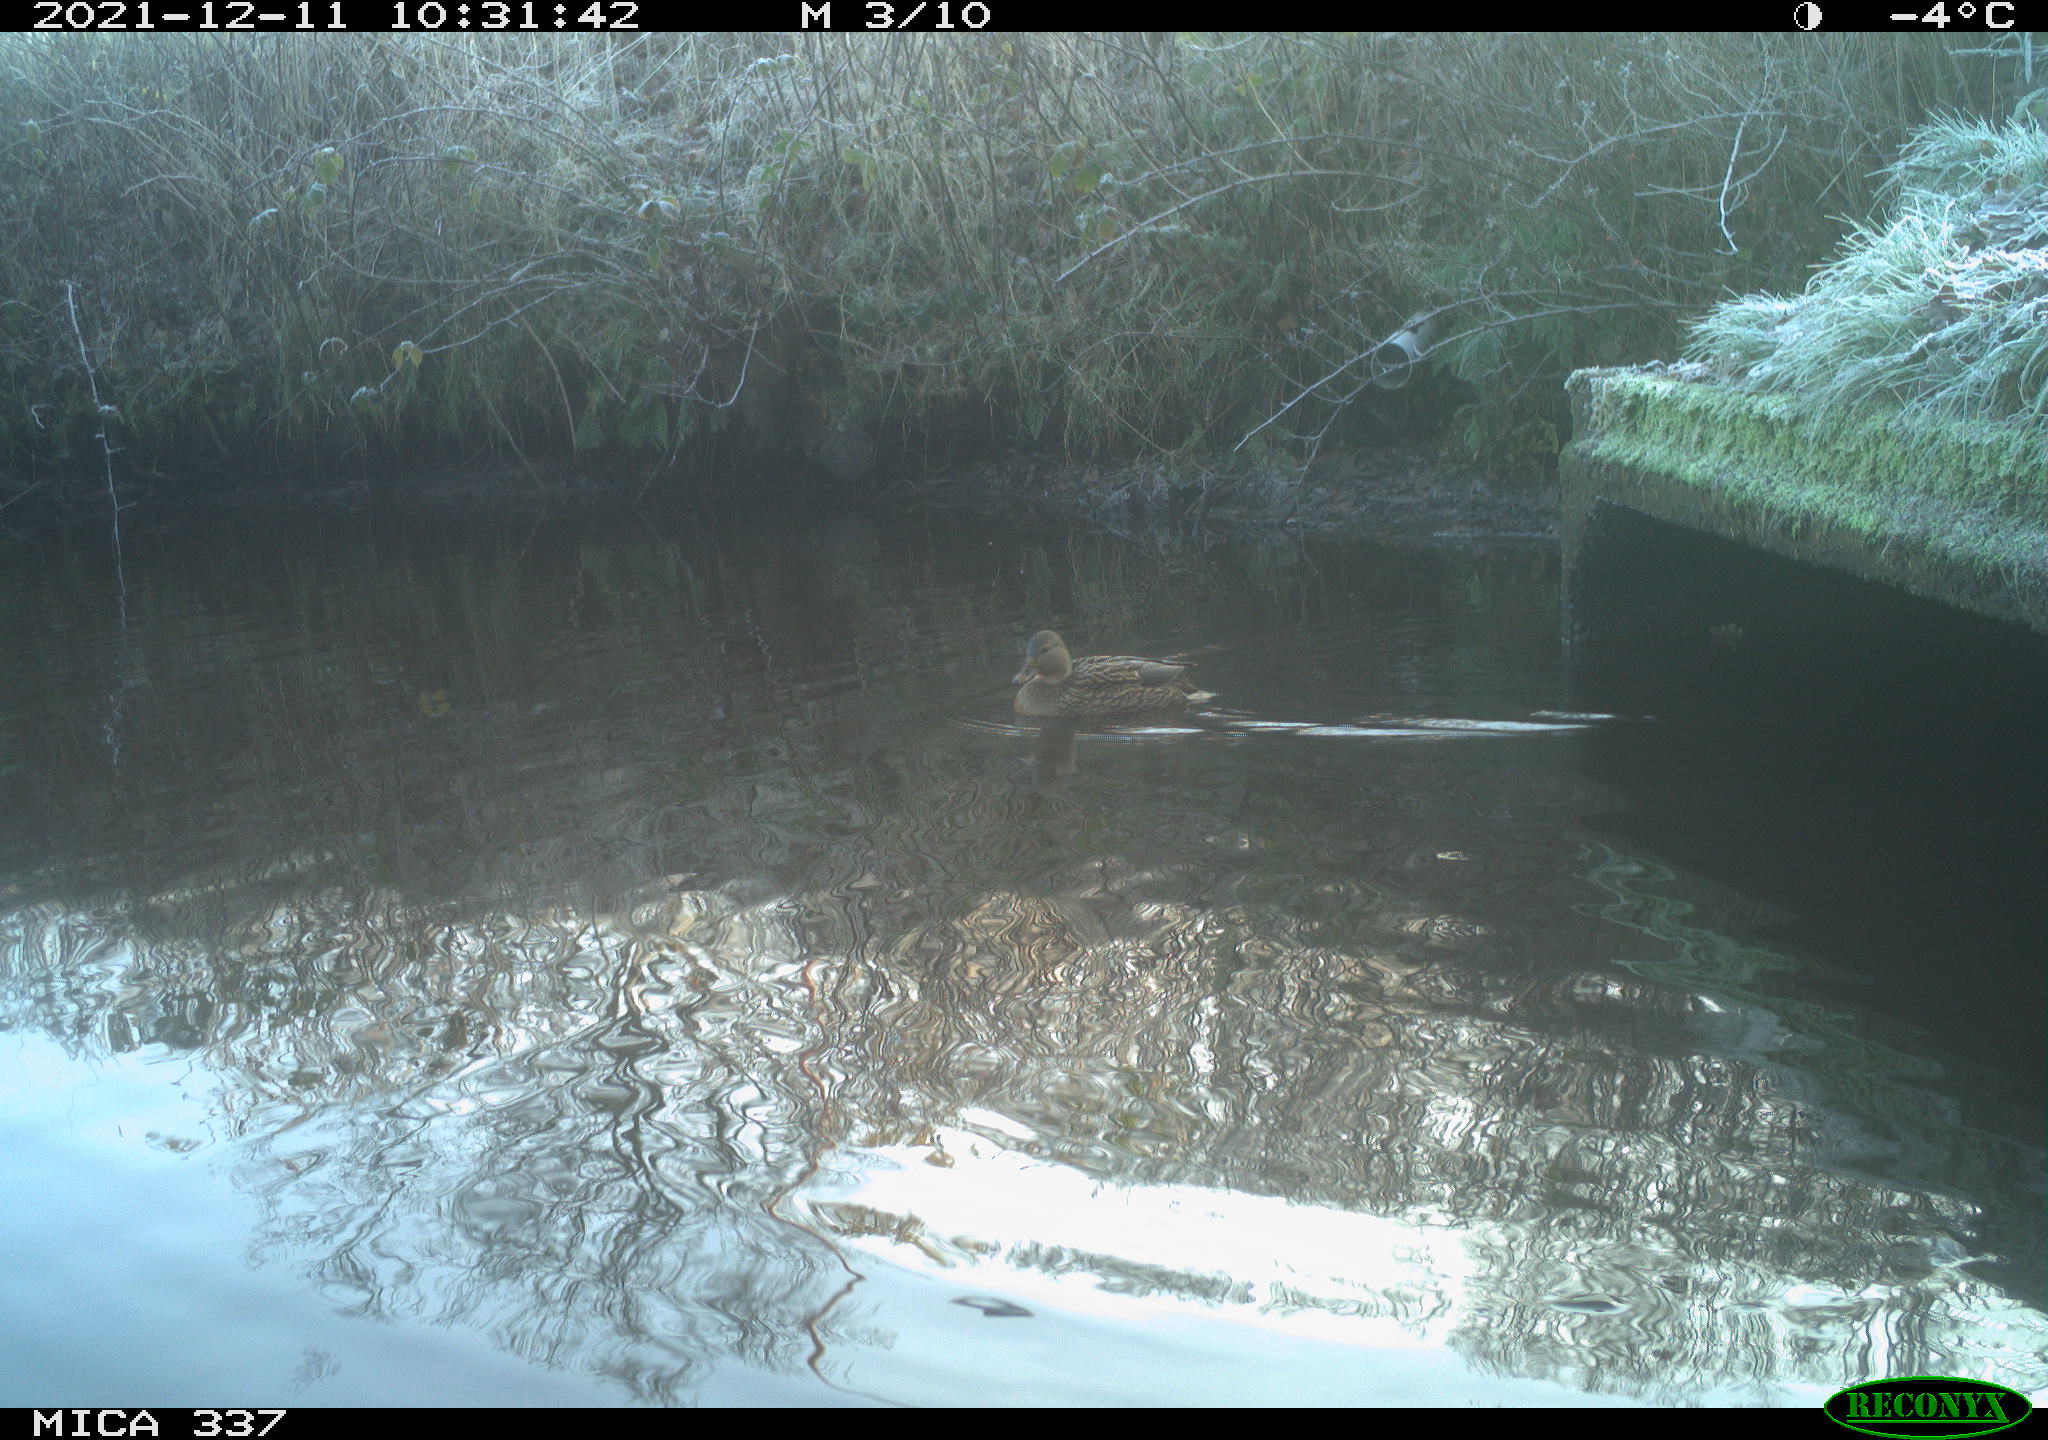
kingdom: Animalia
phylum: Chordata
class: Aves
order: Anseriformes
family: Anatidae
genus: Anas
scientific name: Anas platyrhynchos
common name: Mallard
